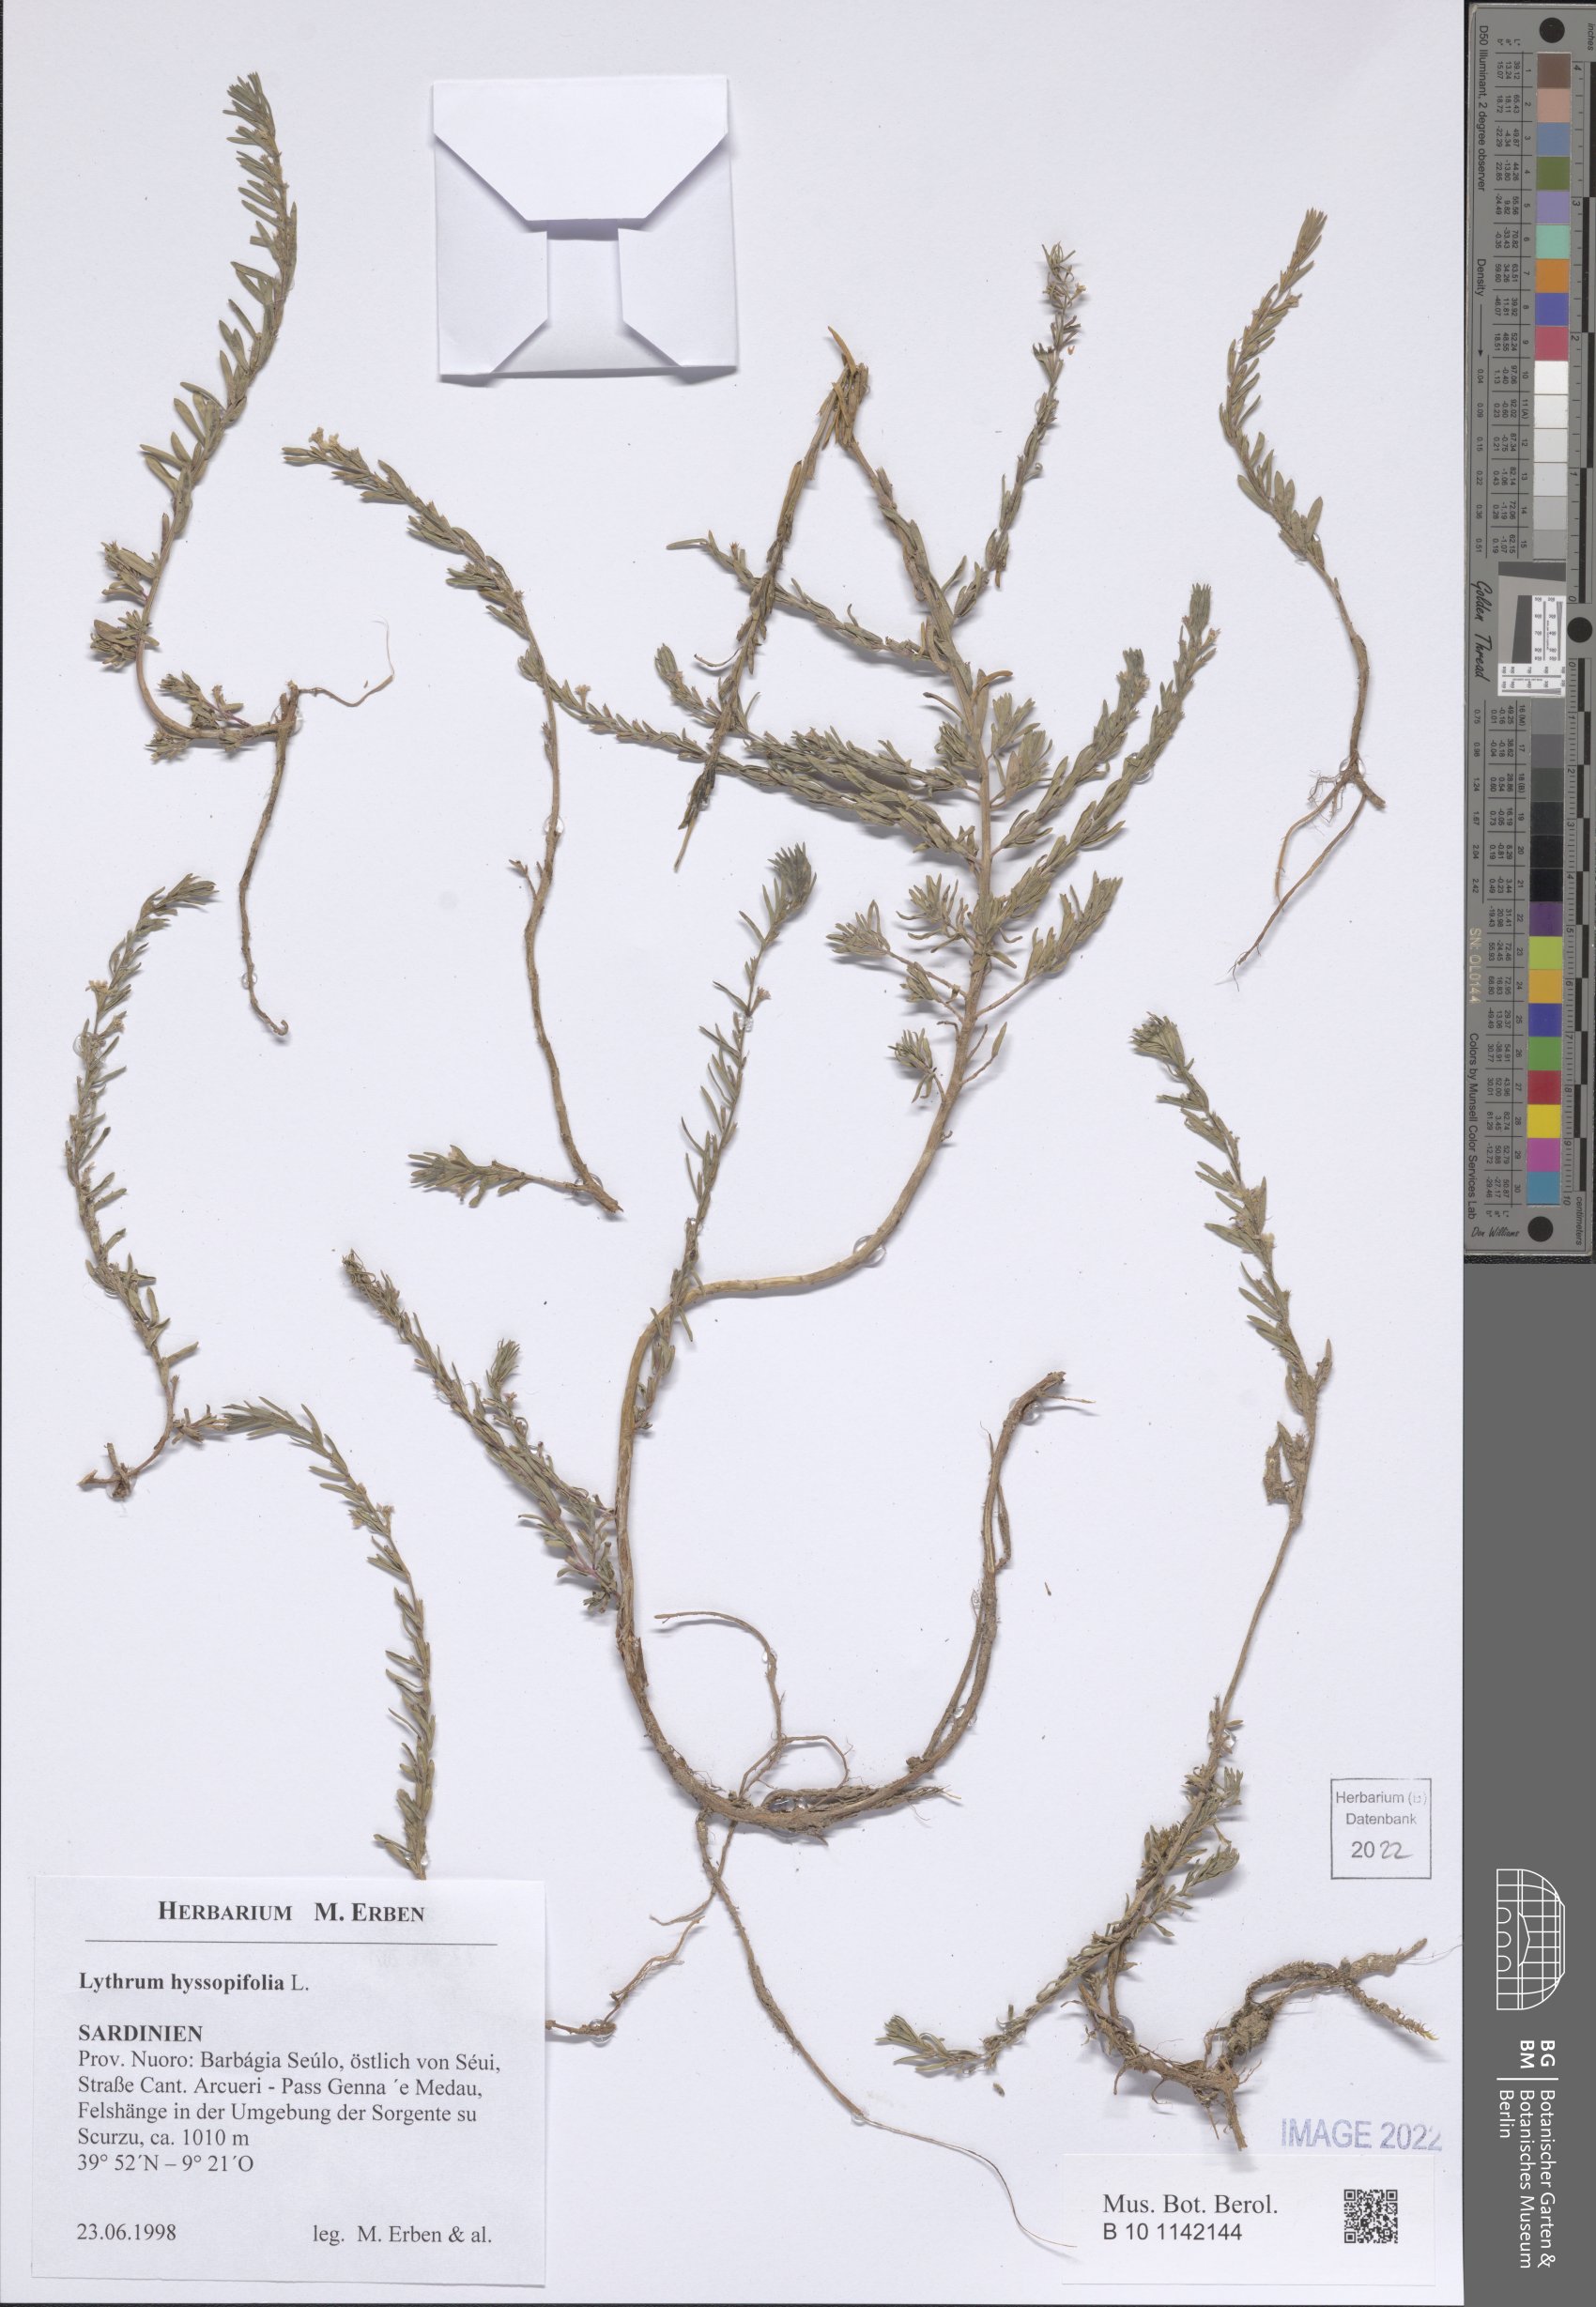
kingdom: Plantae
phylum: Tracheophyta
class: Magnoliopsida
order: Myrtales
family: Lythraceae
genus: Lythrum
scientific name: Lythrum hyssopifolia
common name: Grass-poly
